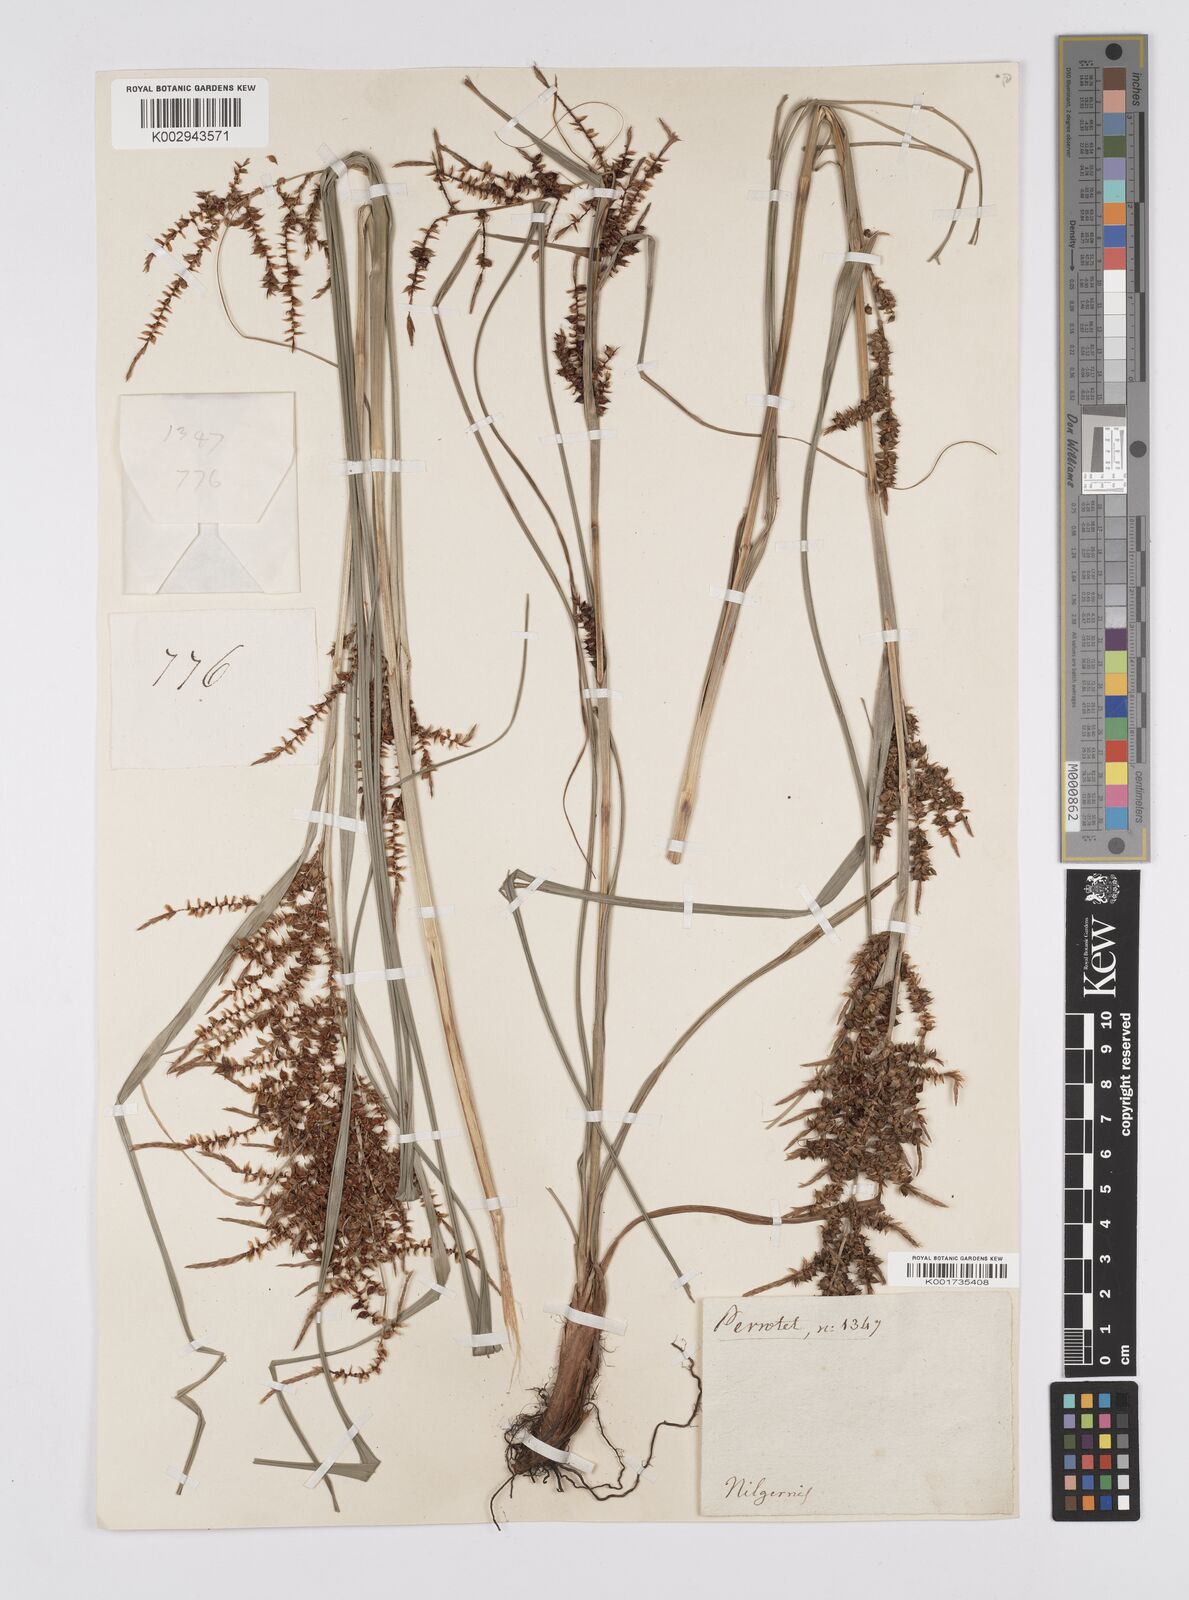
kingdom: Plantae
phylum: Tracheophyta
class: Liliopsida
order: Poales
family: Cyperaceae
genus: Carex
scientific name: Carex baccans
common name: Crimson seeded sedge
